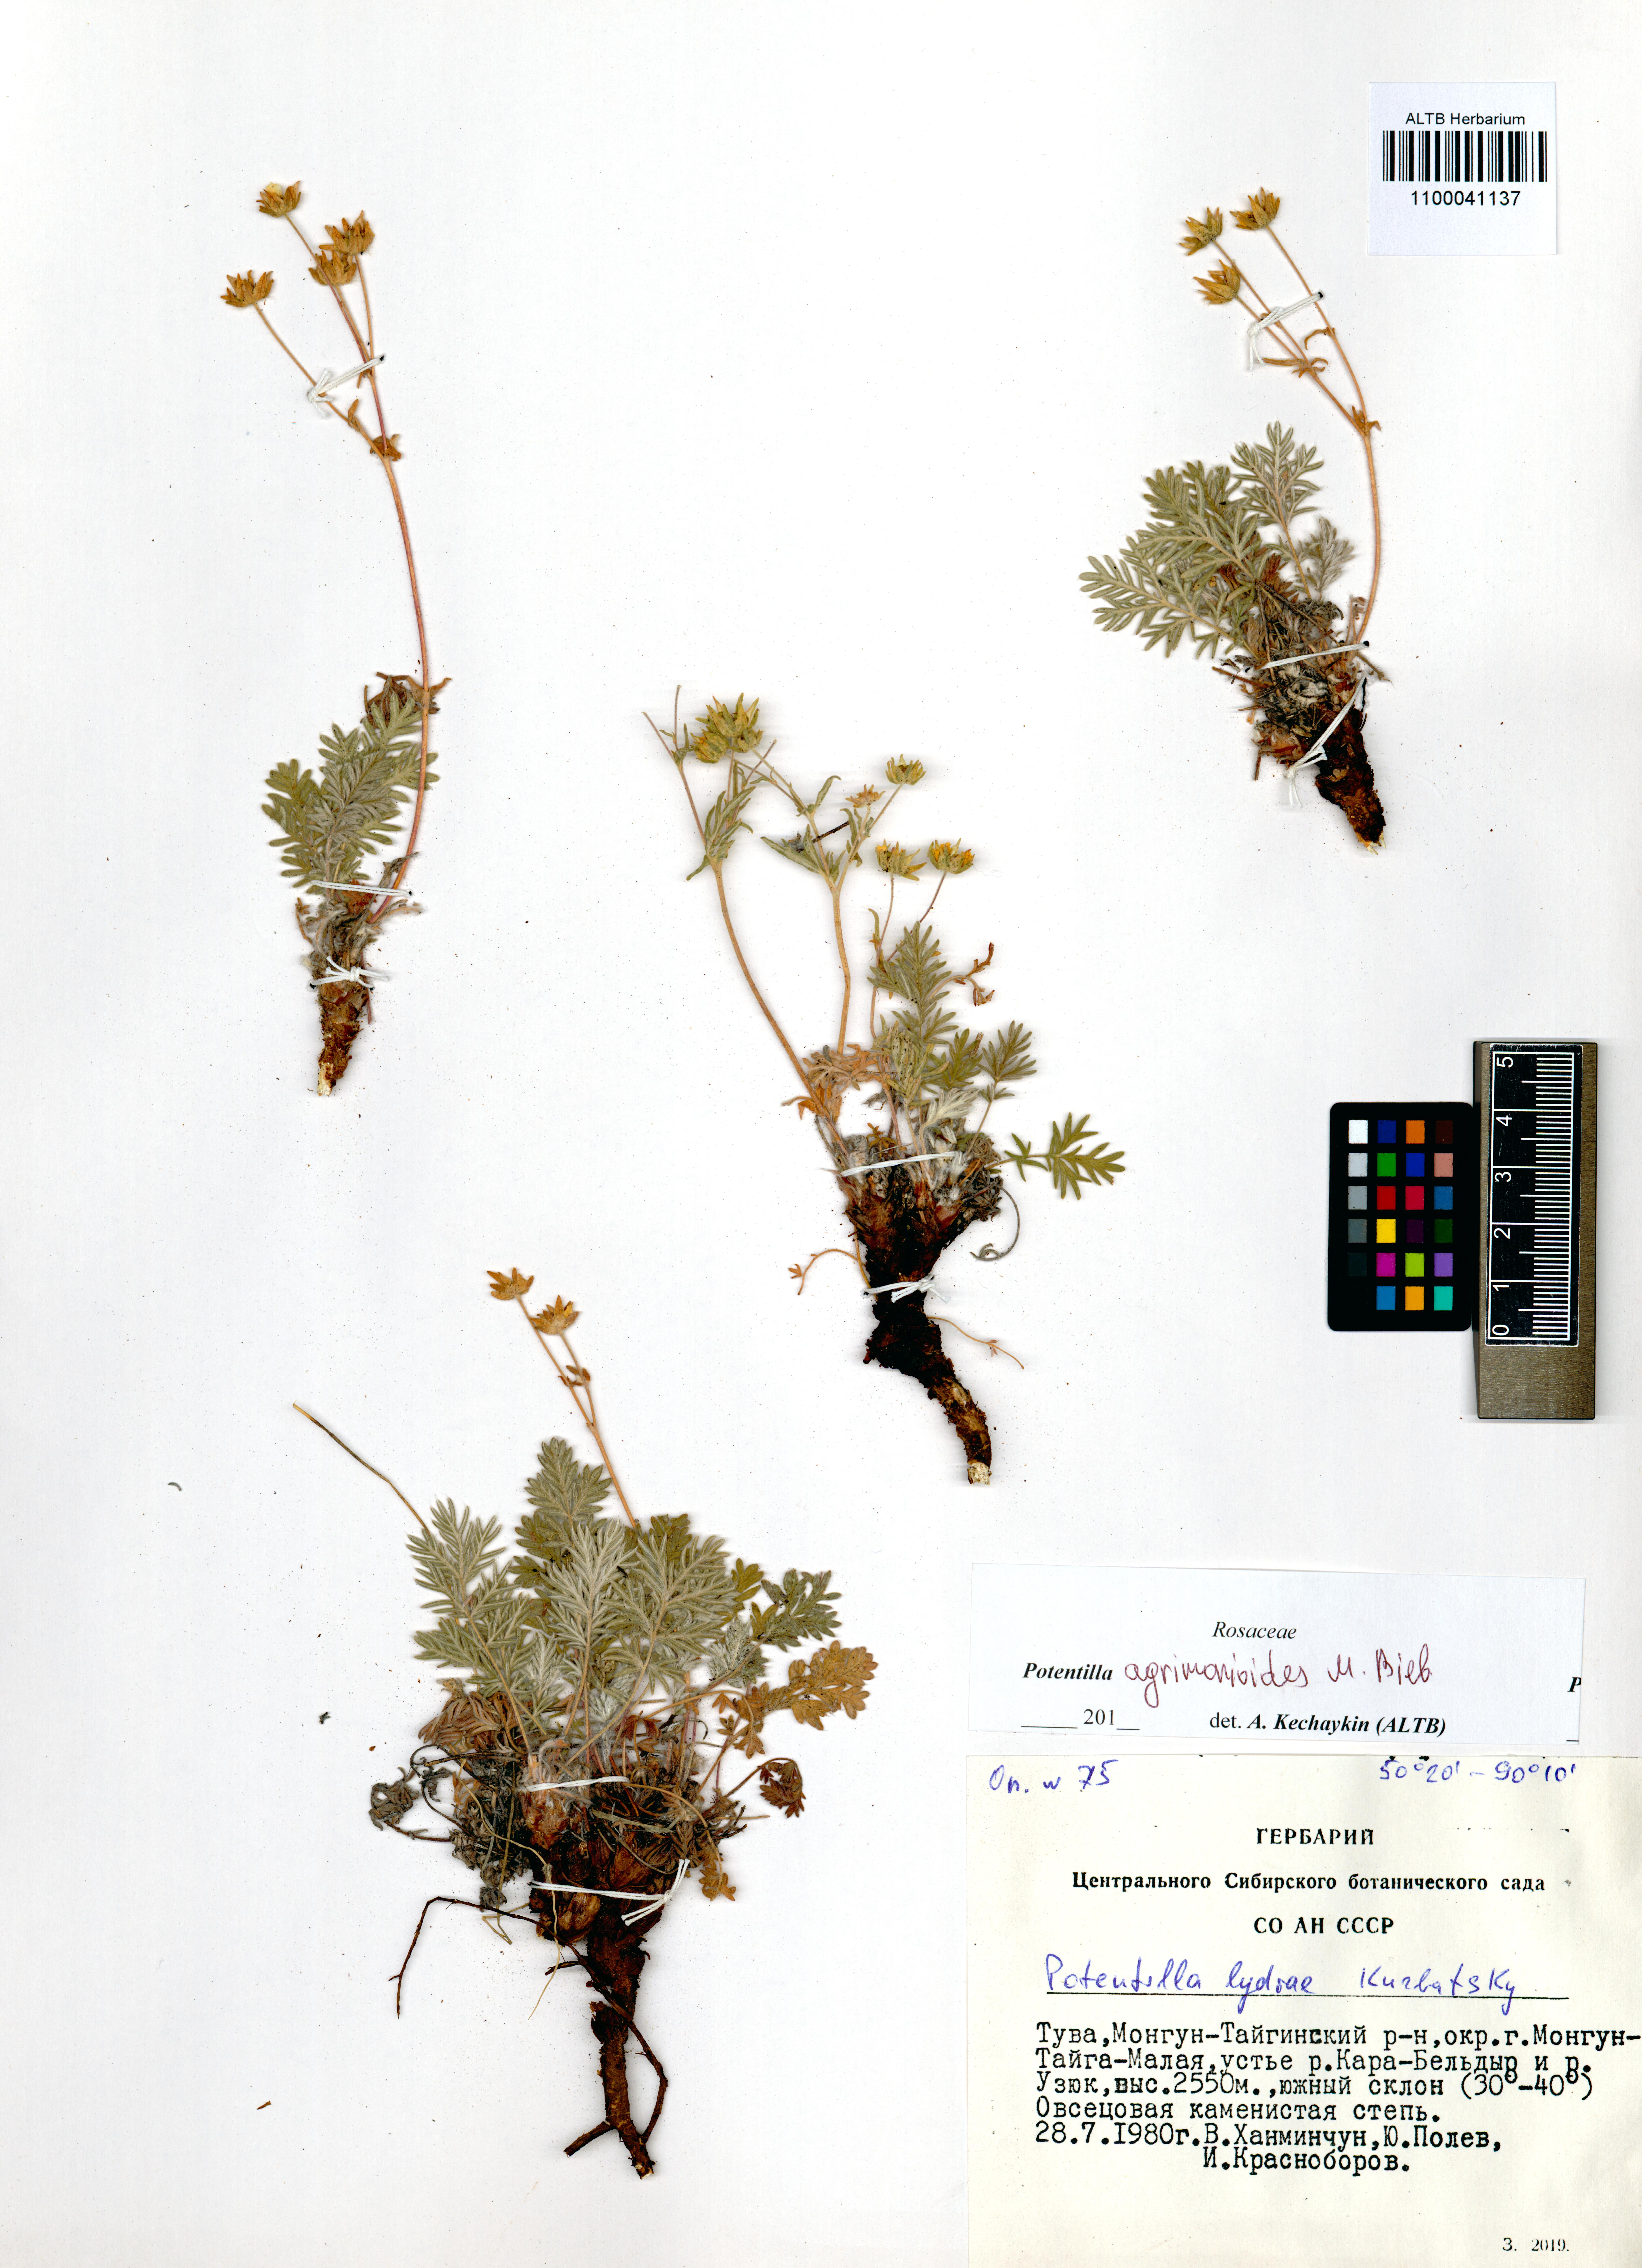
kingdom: Plantae
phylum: Tracheophyta
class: Magnoliopsida
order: Rosales
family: Rosaceae
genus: Potentilla
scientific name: Potentilla agrimonioides
